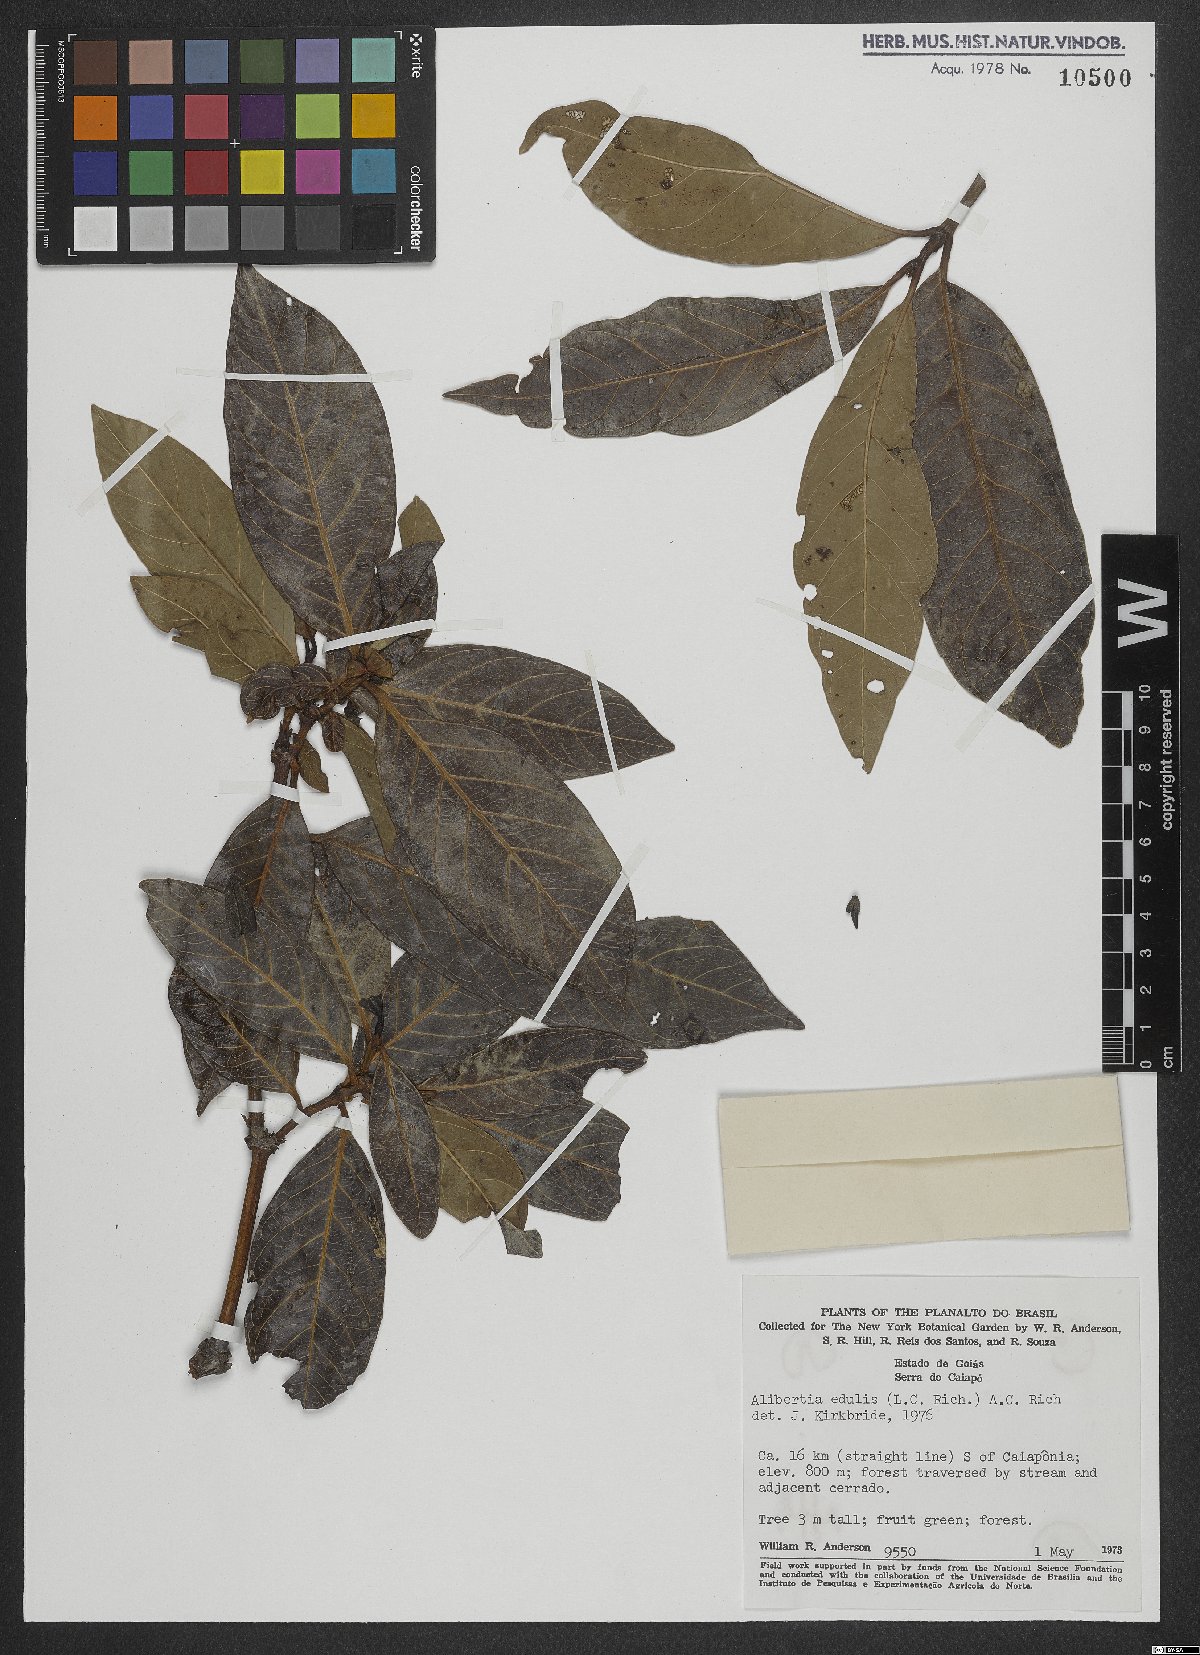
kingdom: Plantae
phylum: Tracheophyta
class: Magnoliopsida
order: Gentianales
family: Rubiaceae
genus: Alibertia
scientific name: Alibertia edulis
